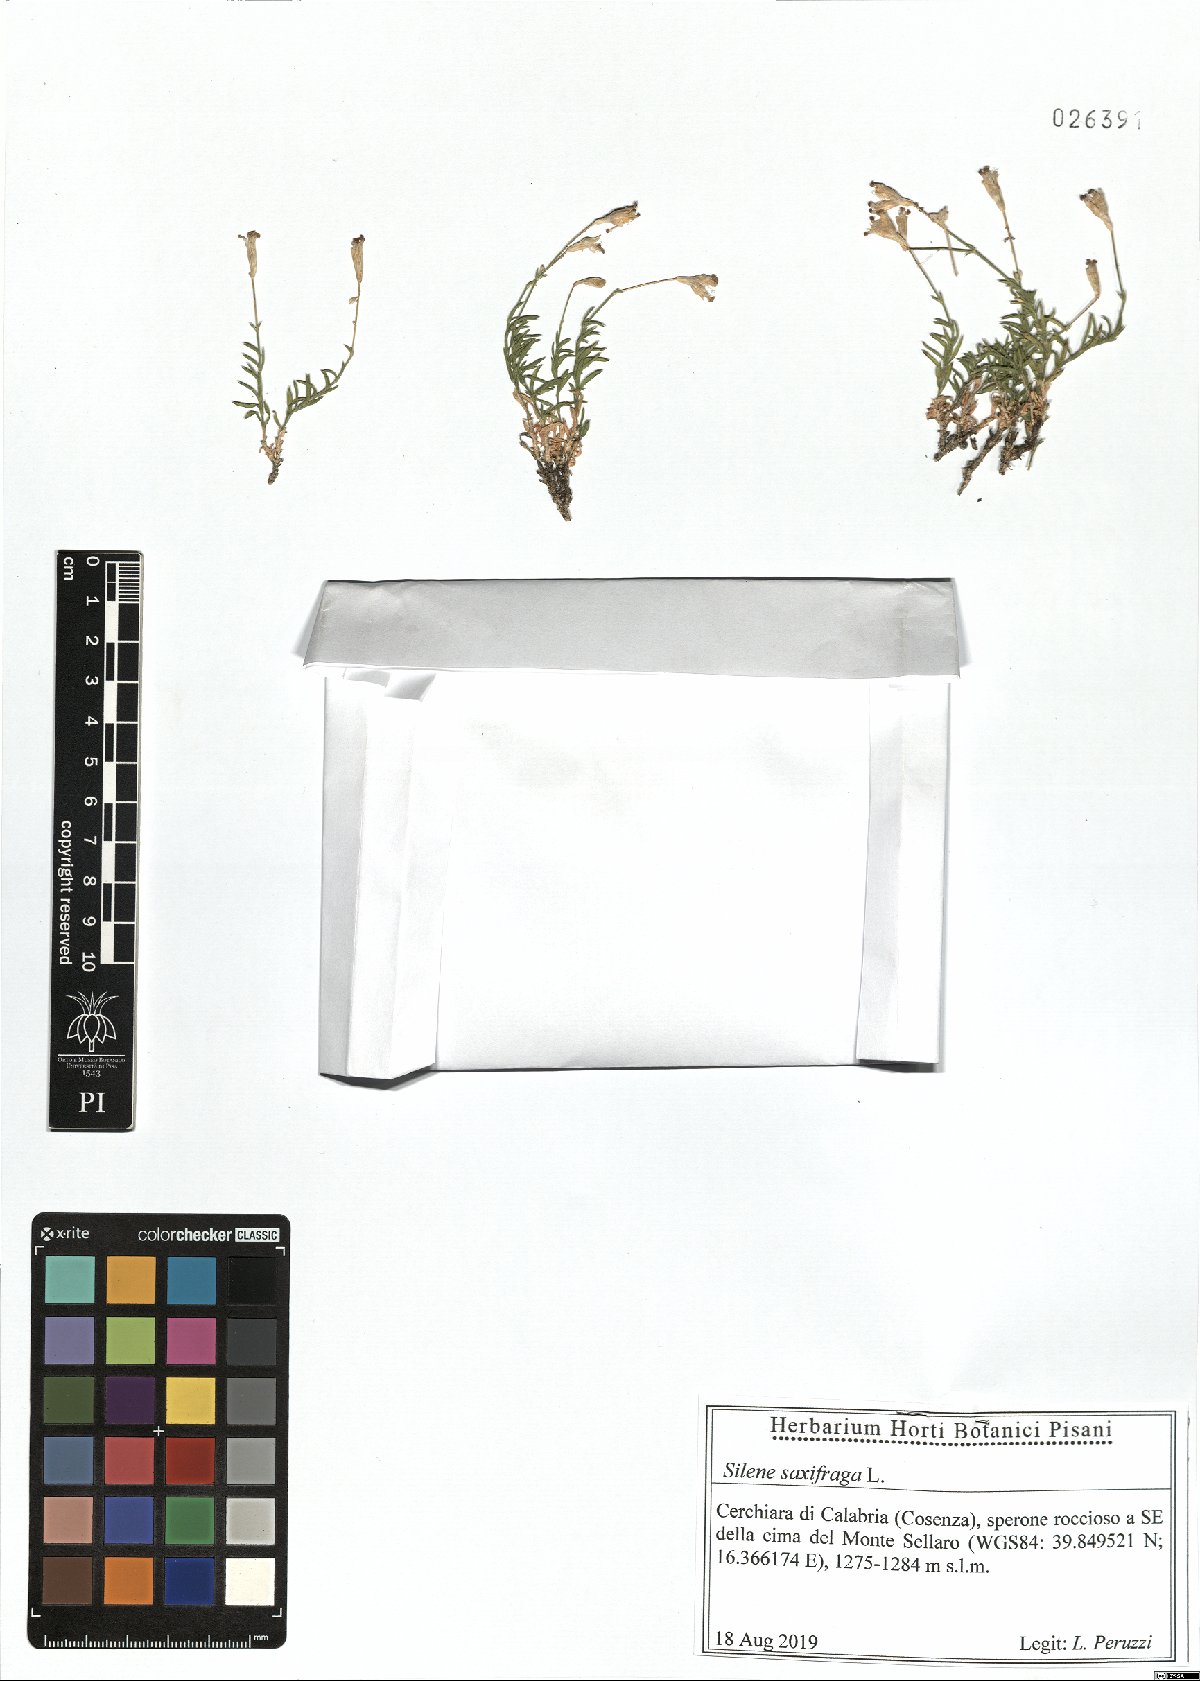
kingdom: Plantae
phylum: Tracheophyta
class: Magnoliopsida
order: Caryophyllales
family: Caryophyllaceae
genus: Silene
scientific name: Silene saxifraga
